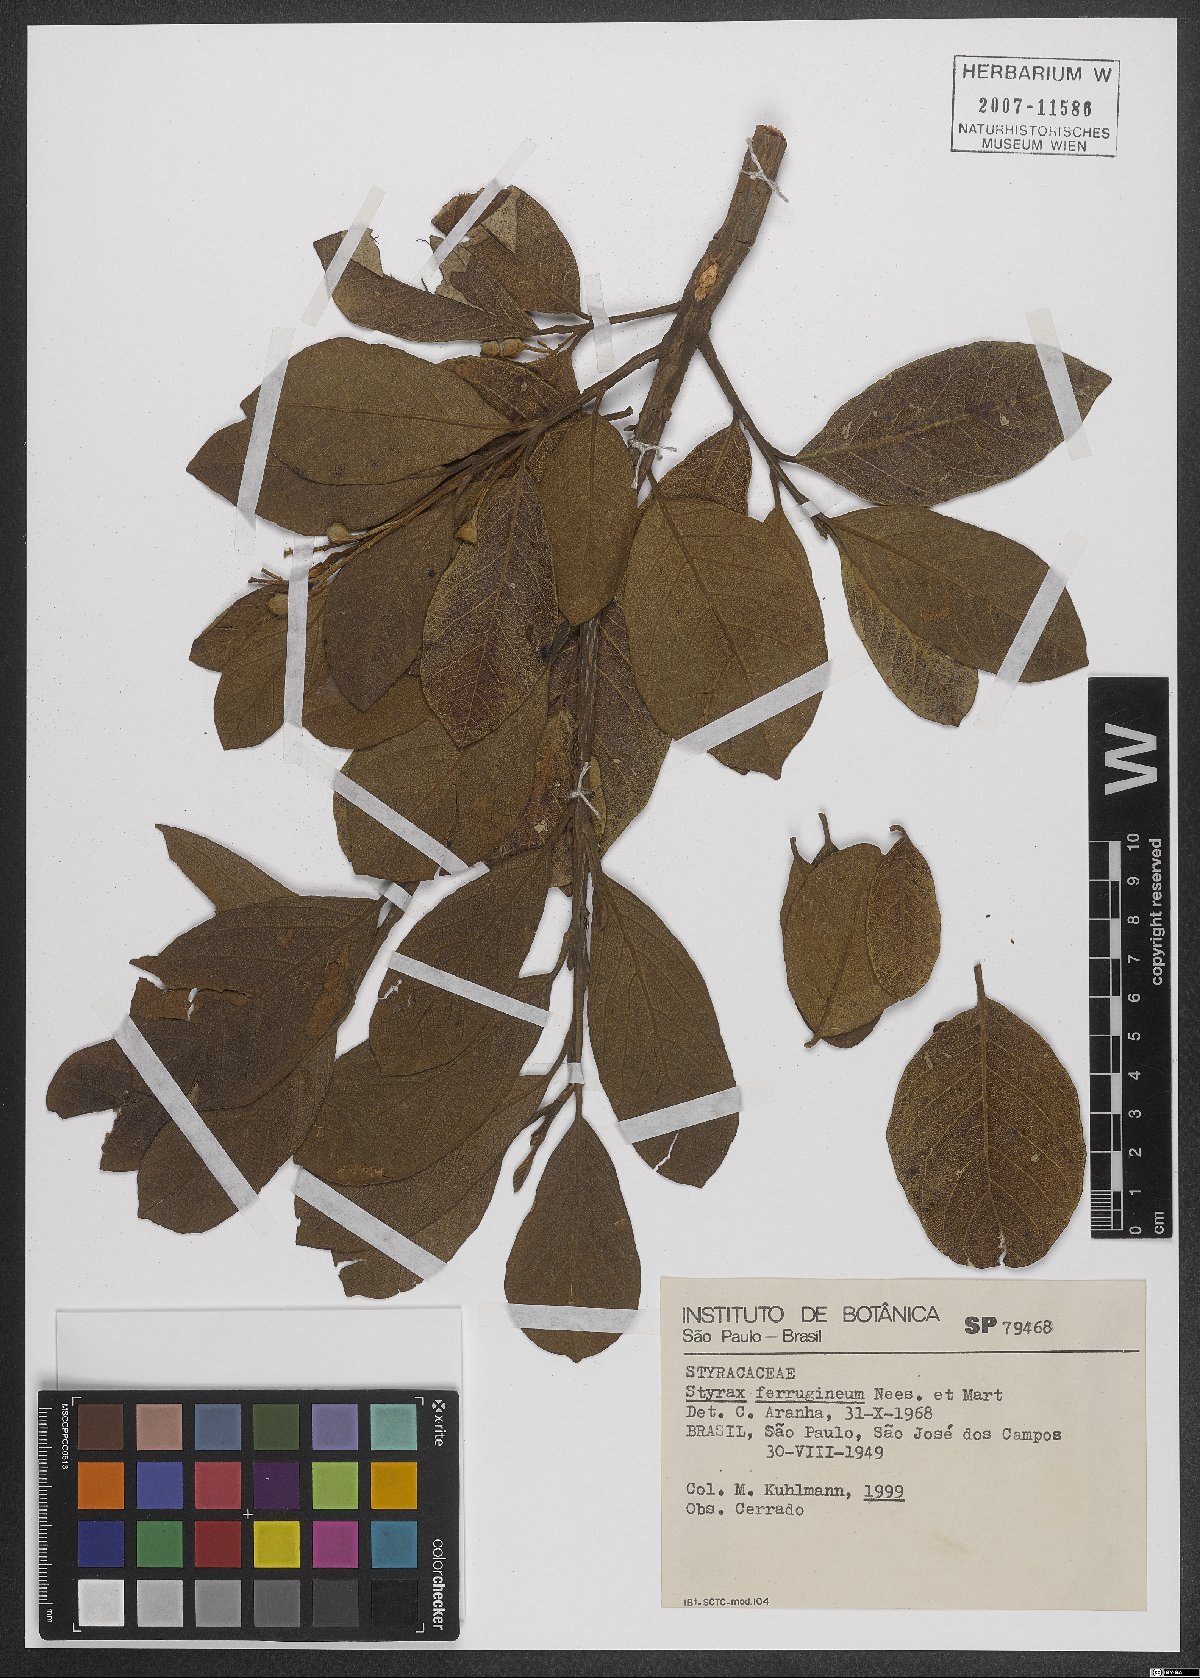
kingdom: Plantae
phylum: Tracheophyta
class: Magnoliopsida
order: Ericales
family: Styracaceae
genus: Styrax
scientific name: Styrax ferrugineus
